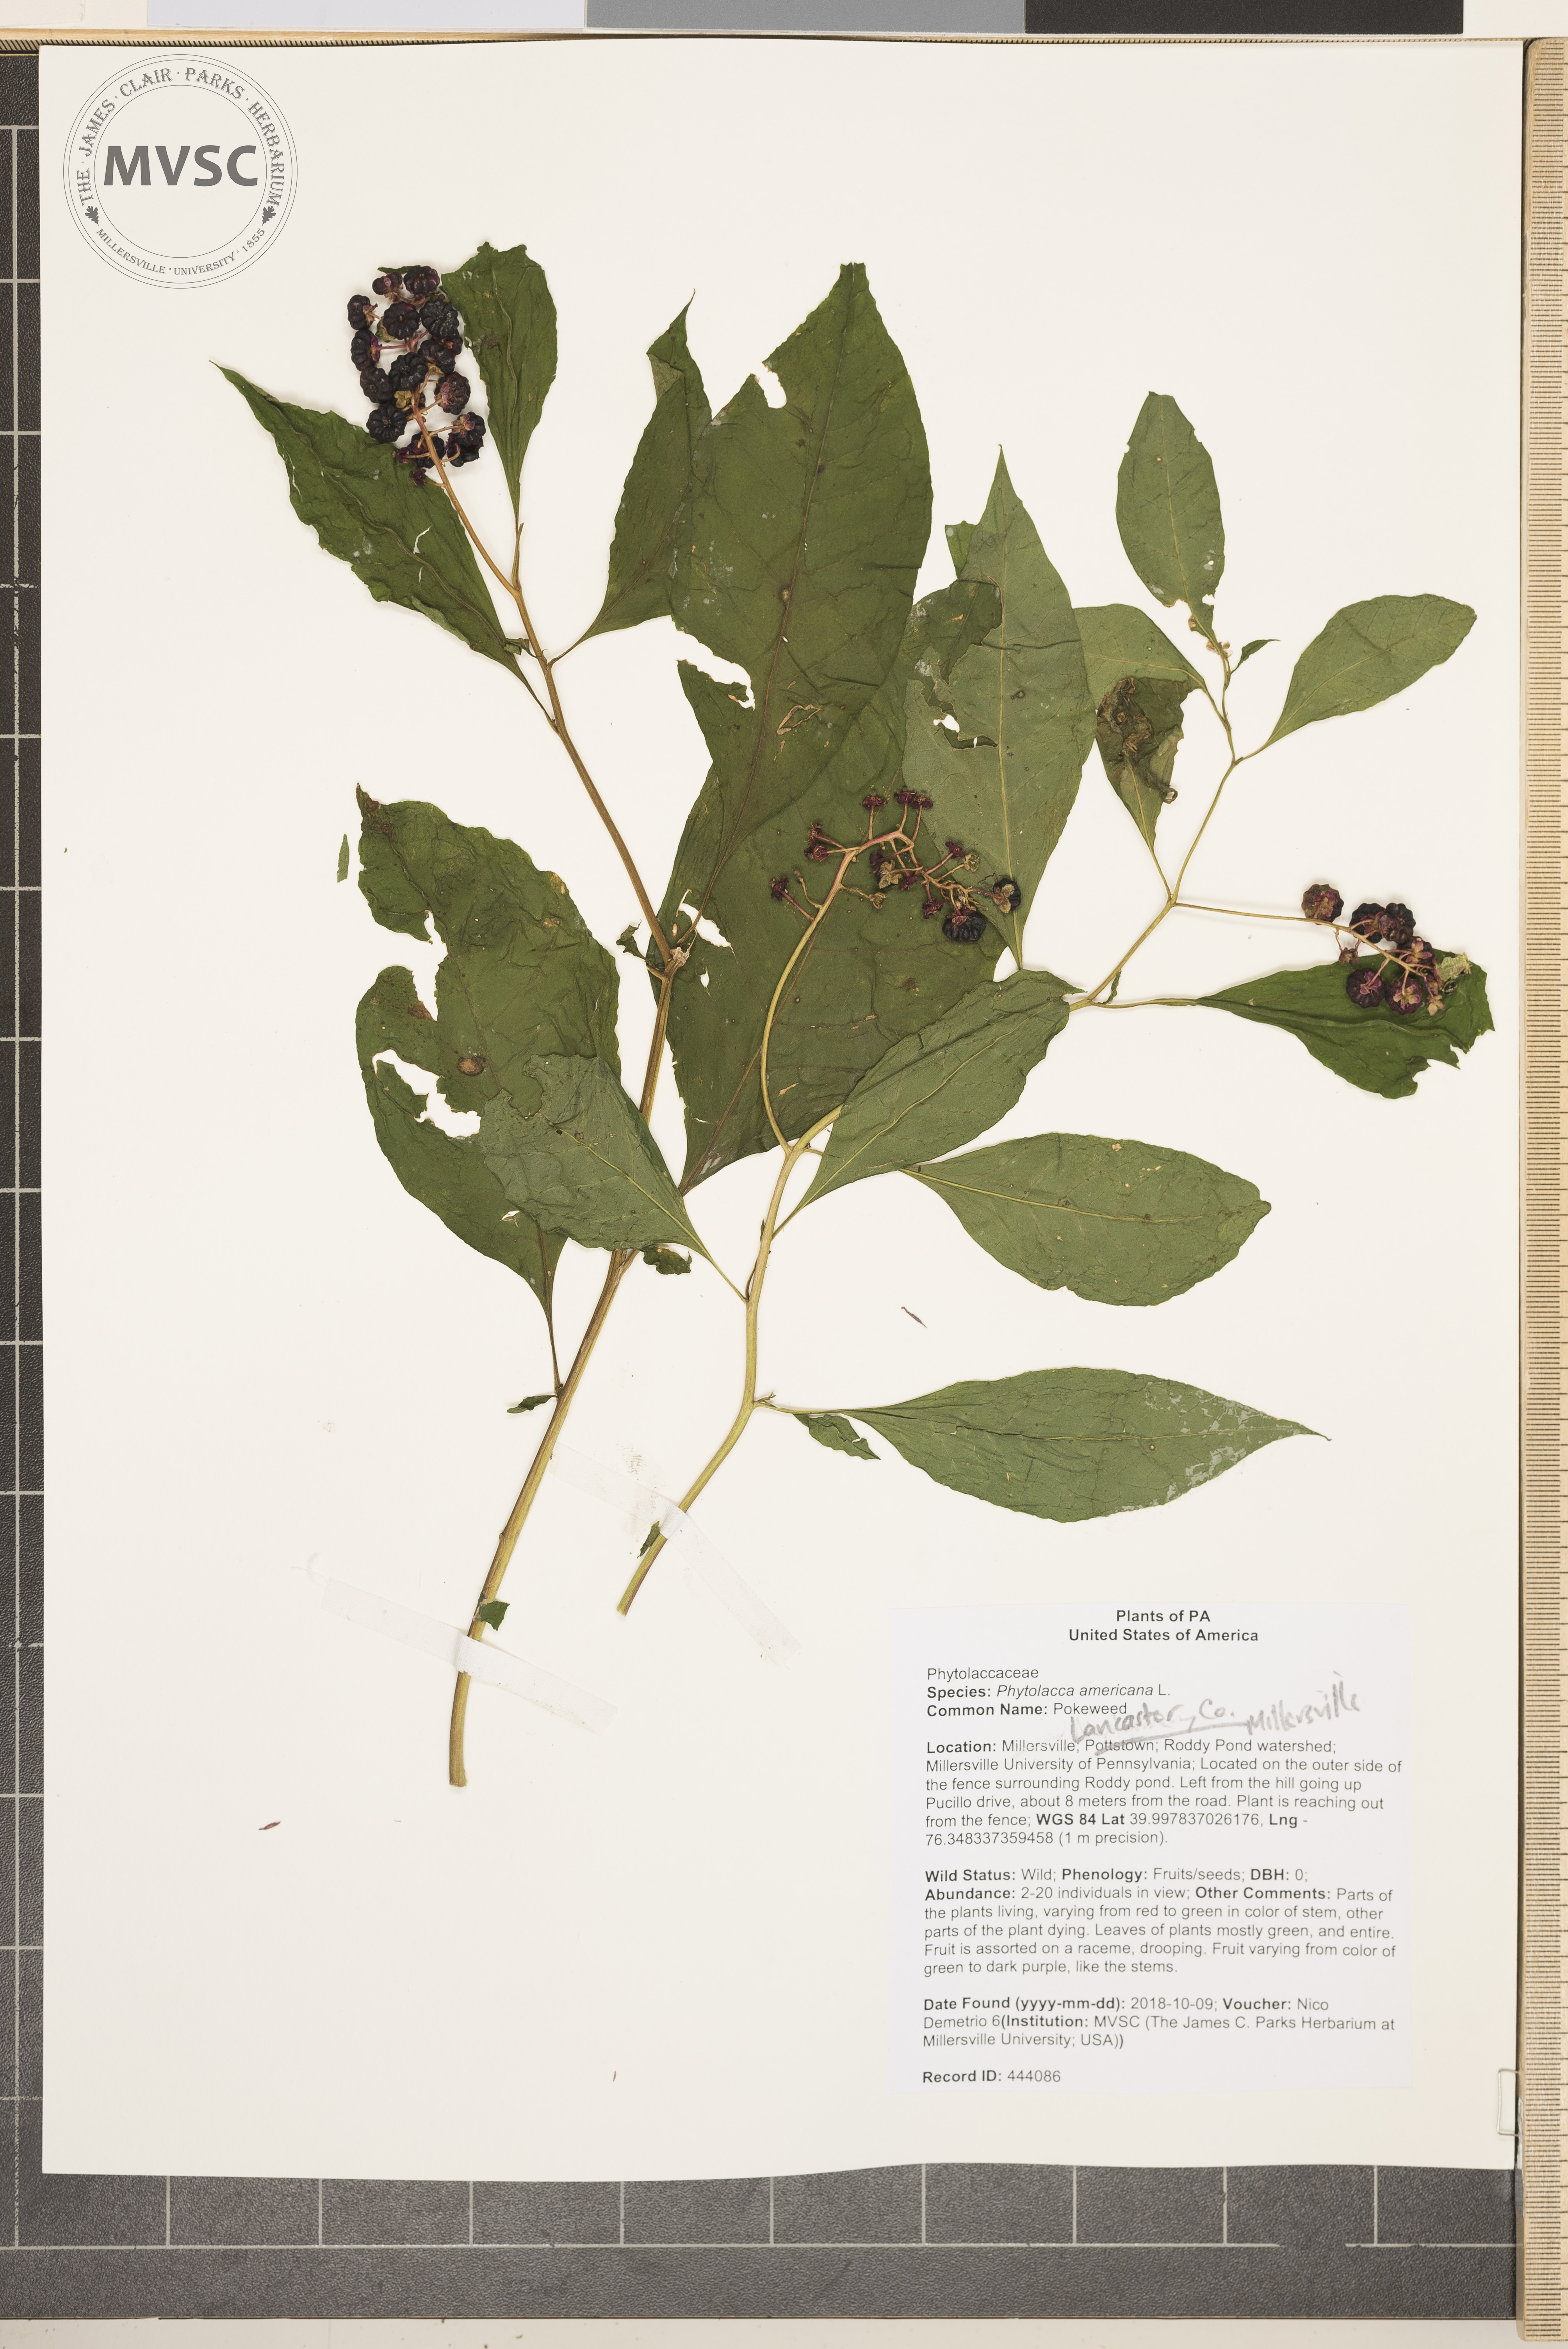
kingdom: Plantae
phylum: Tracheophyta
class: Magnoliopsida
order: Caryophyllales
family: Phytolaccaceae
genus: Phytolacca
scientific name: Phytolacca americana
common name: Pokeweed
